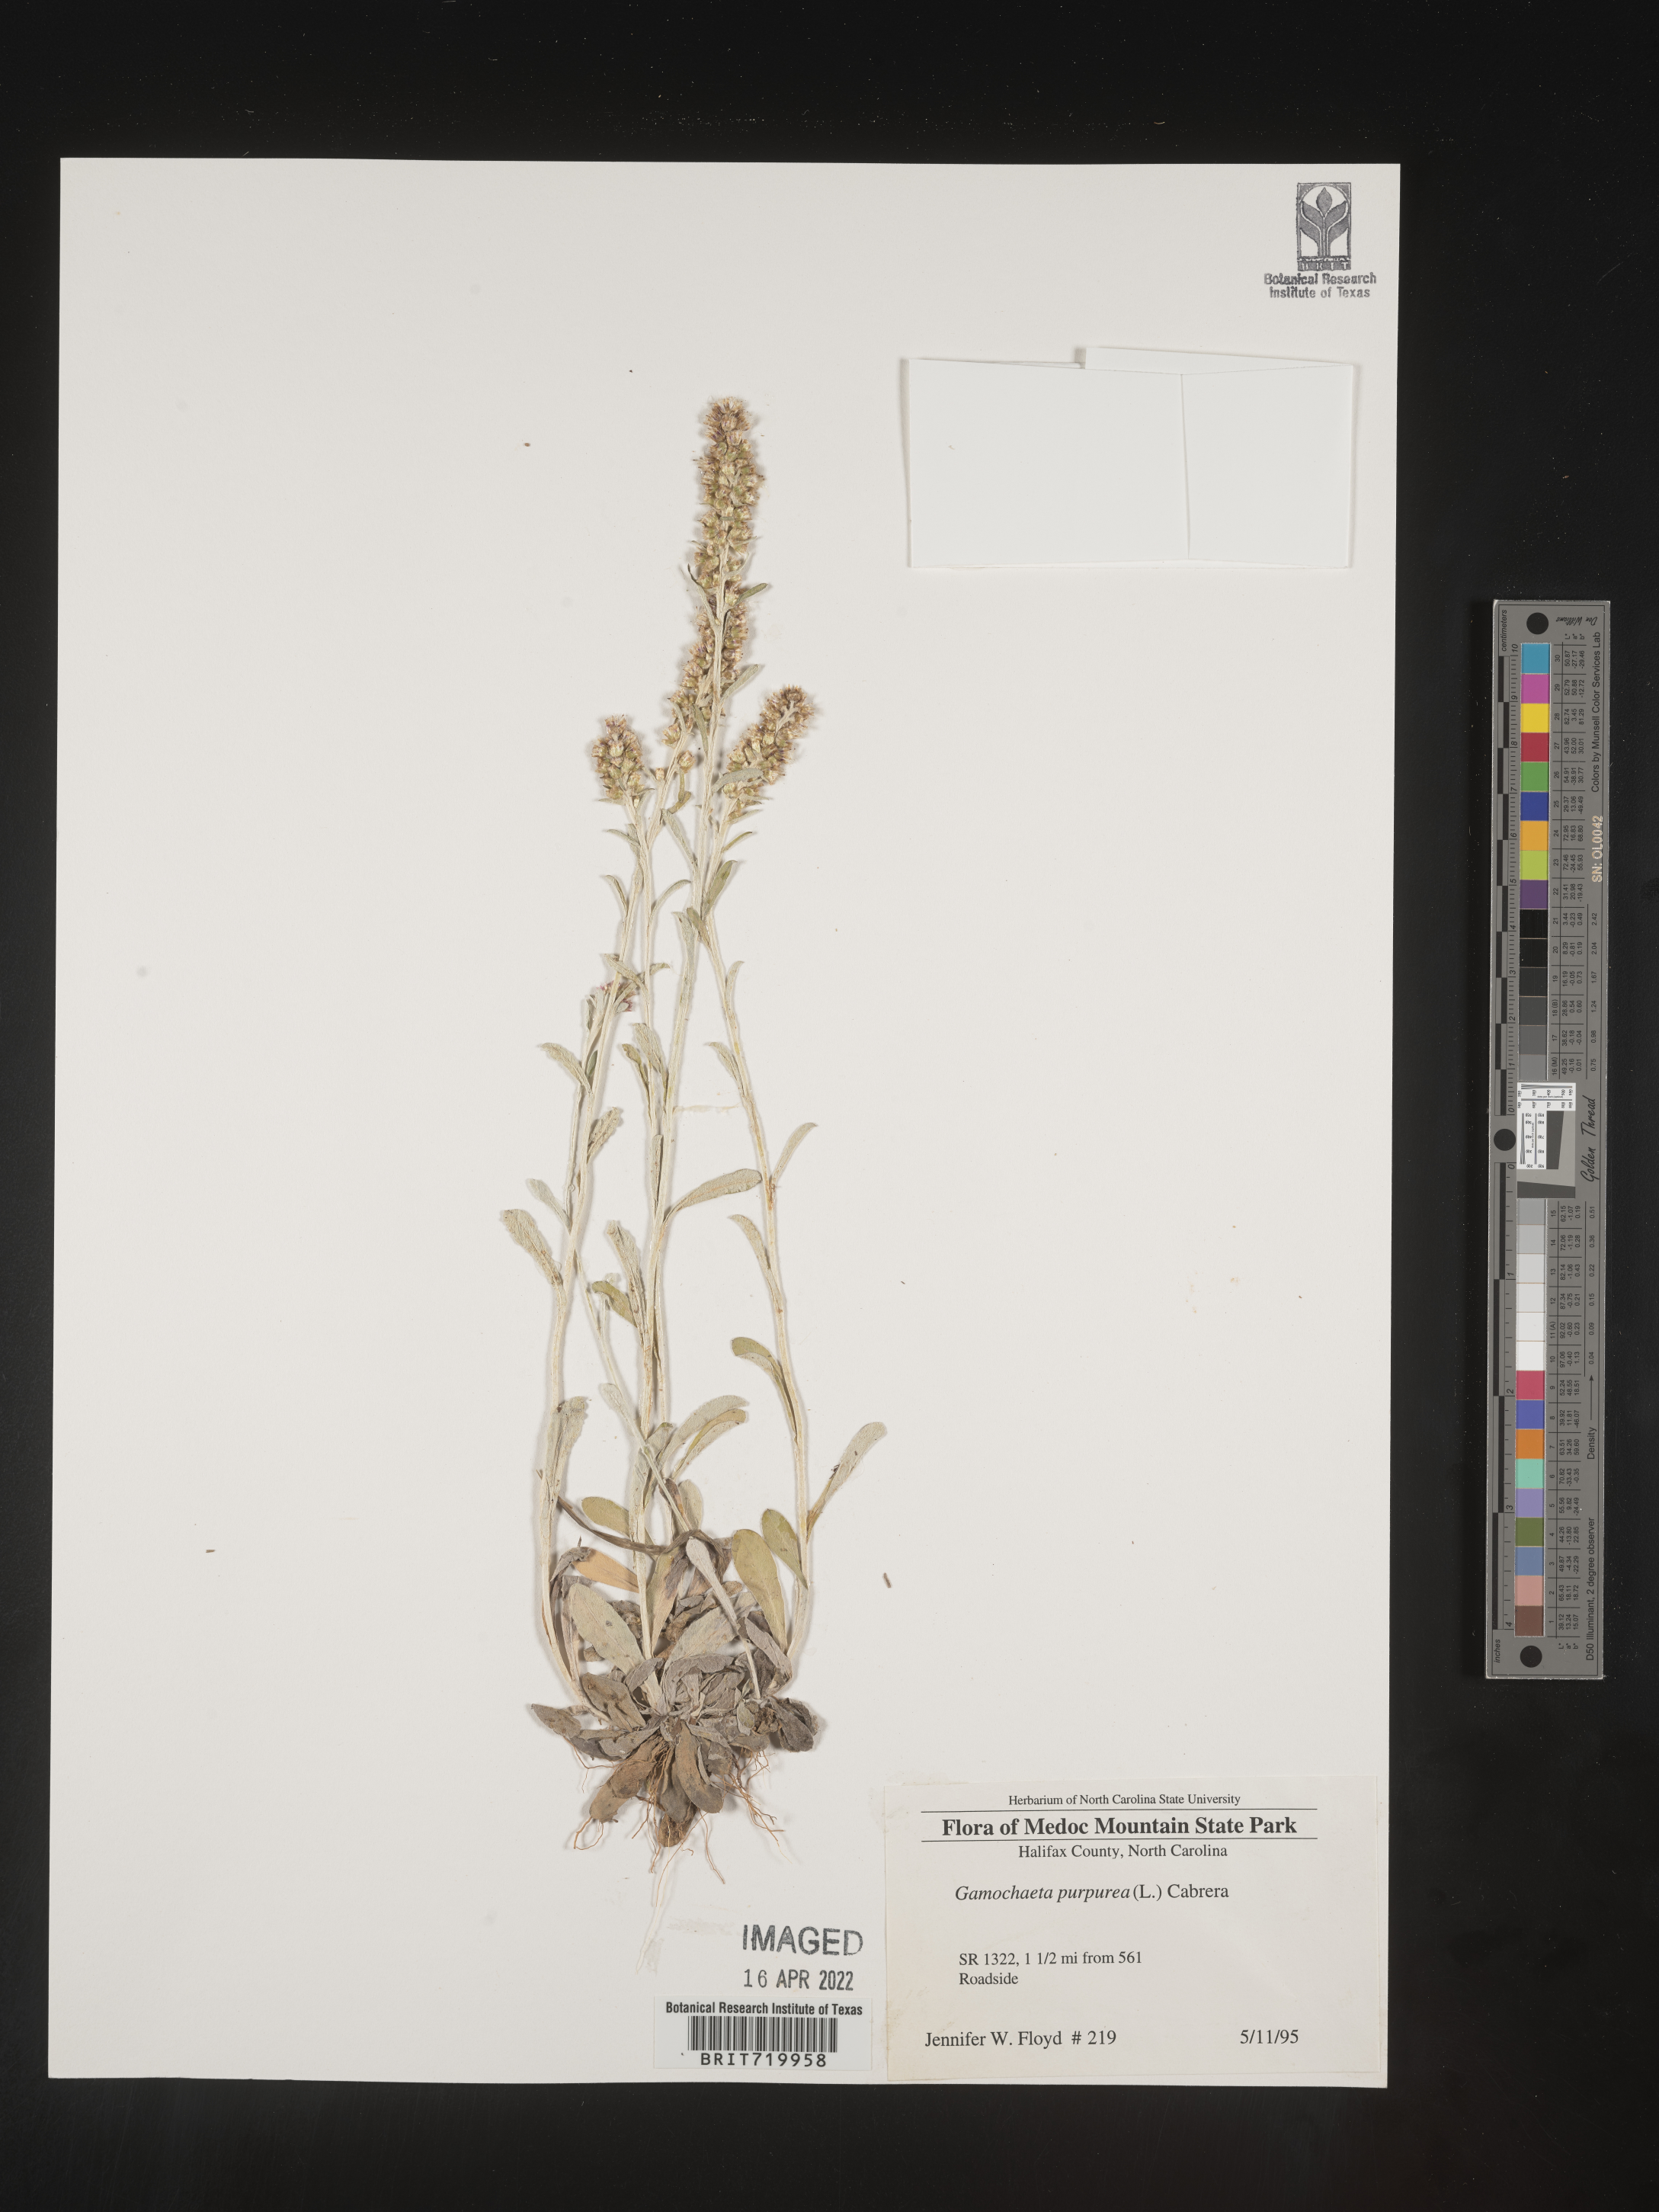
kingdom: Plantae
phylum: Tracheophyta
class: Magnoliopsida
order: Asterales
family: Asteraceae
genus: Gamochaeta
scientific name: Gamochaeta purpurea
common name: Purple cudweed
